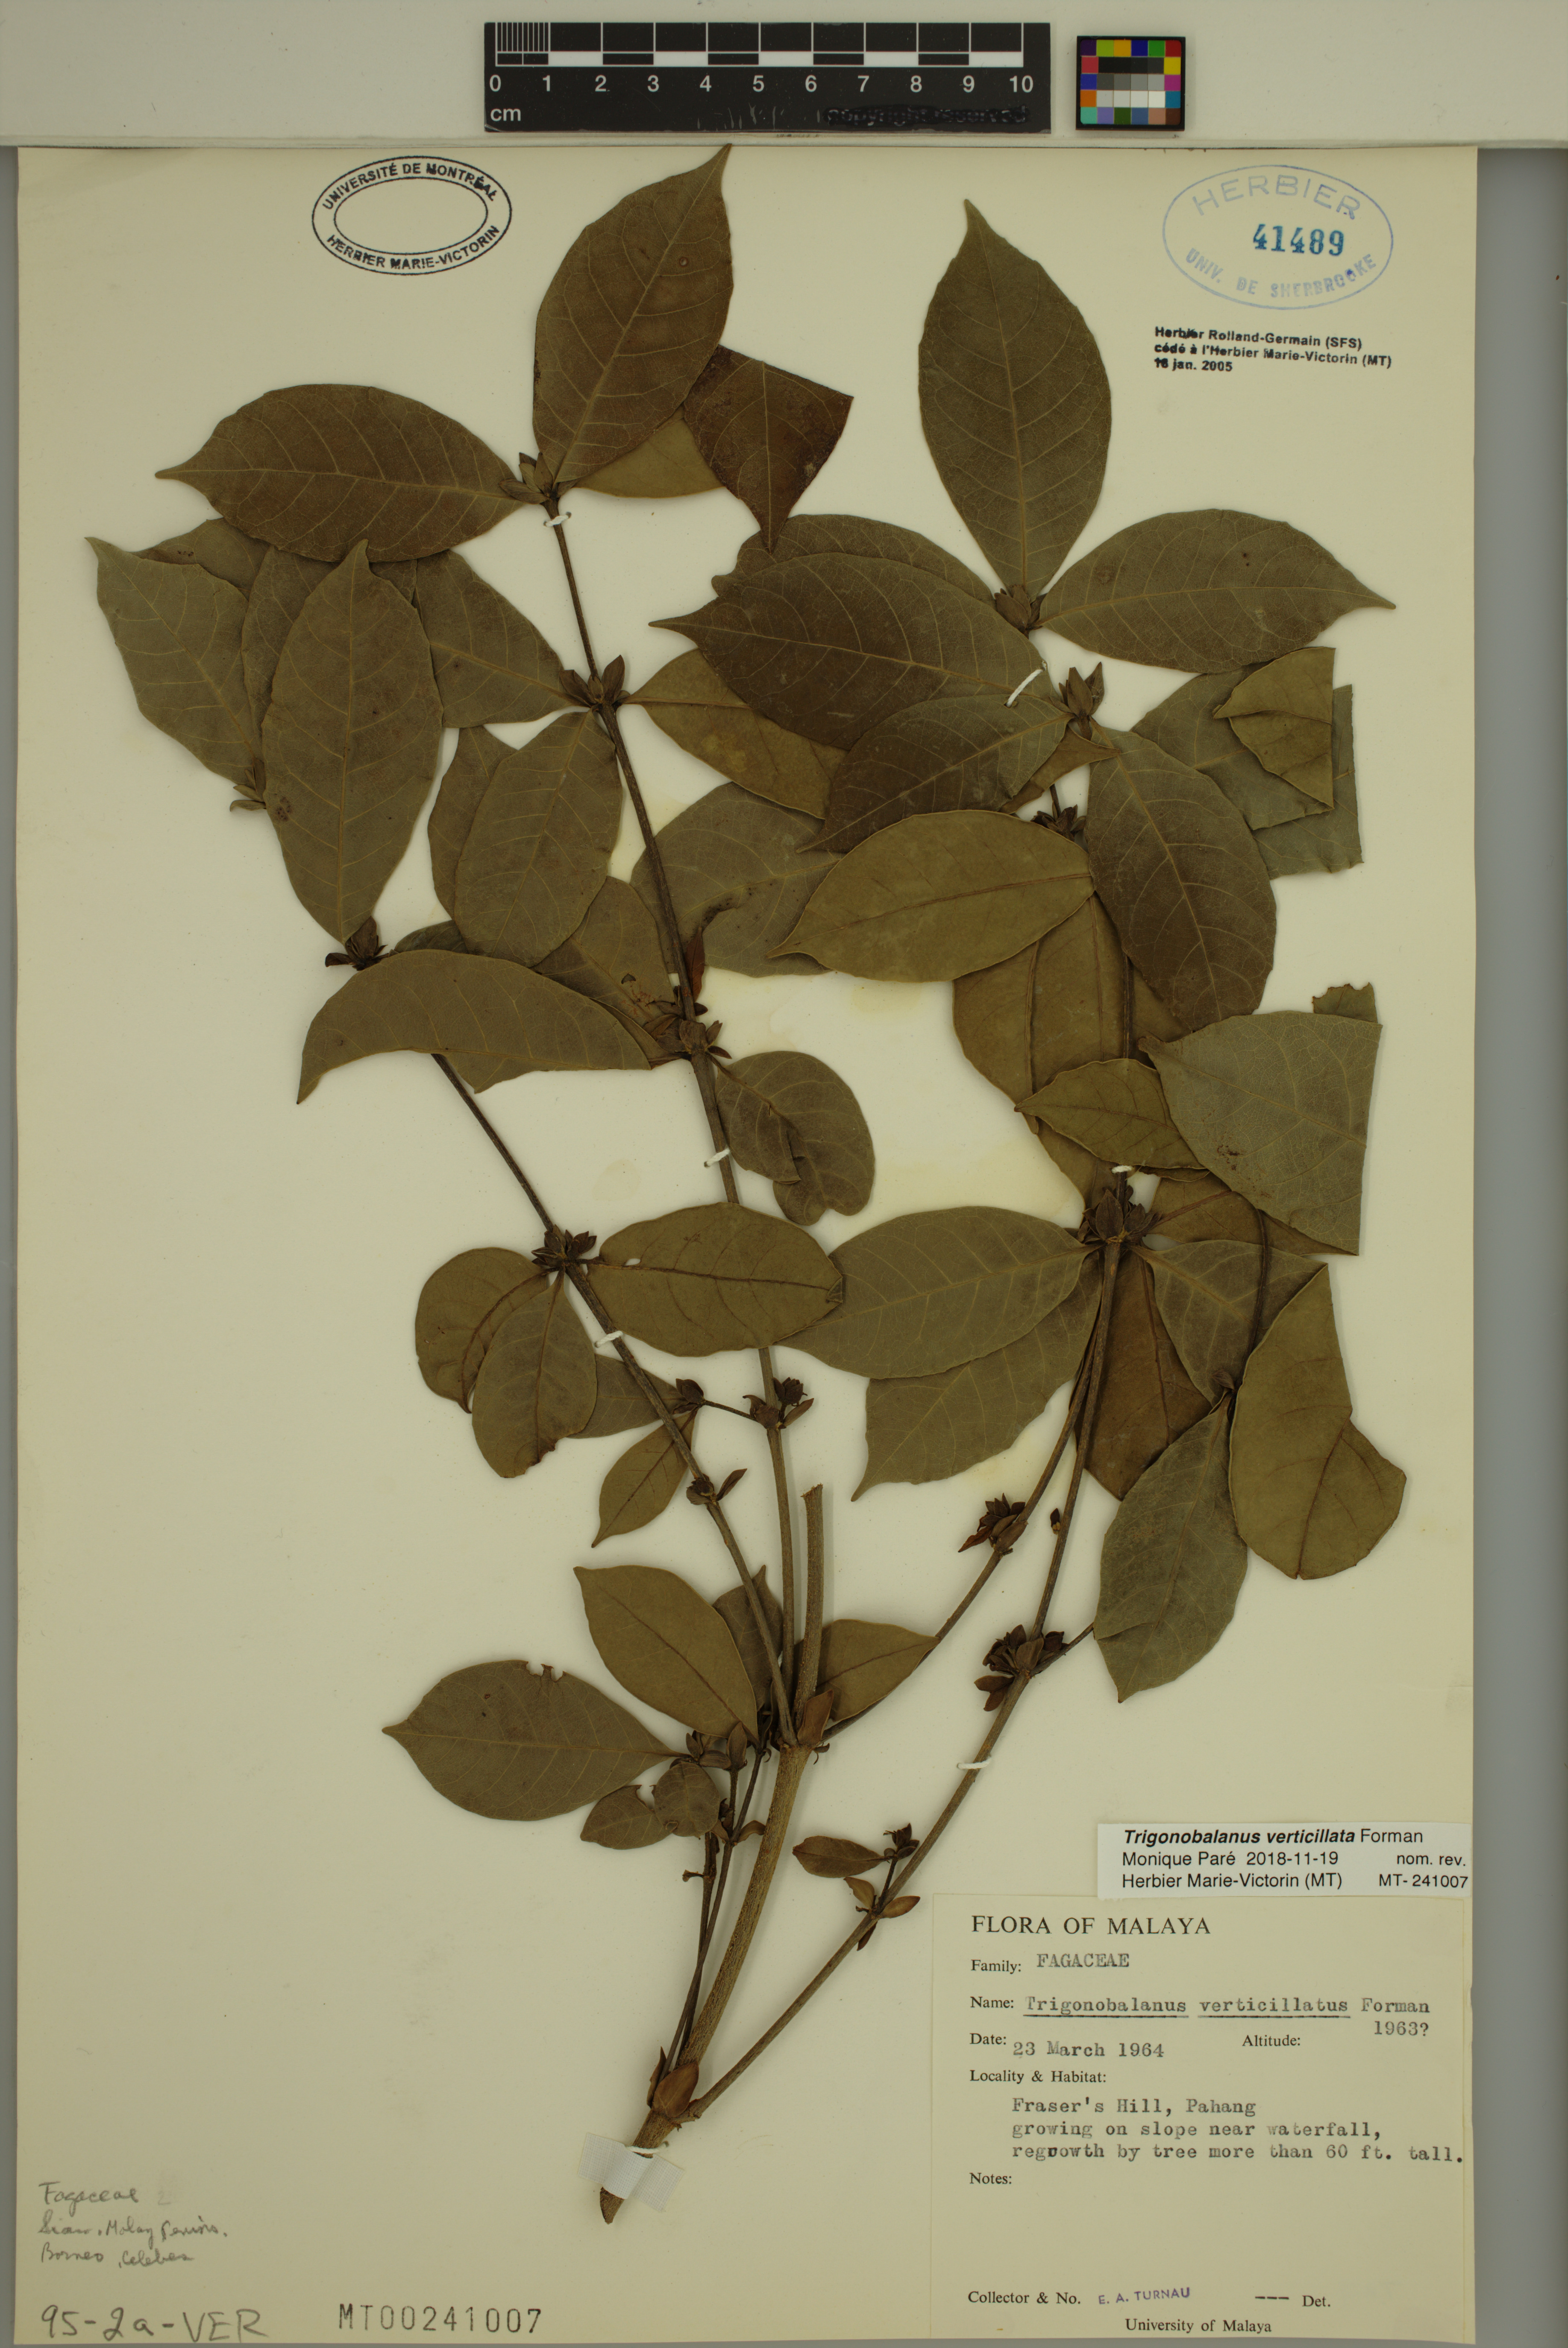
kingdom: Plantae
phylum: Tracheophyta
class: Magnoliopsida
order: Fagales
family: Fagaceae
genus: Trigonobalanus
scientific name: Trigonobalanus verticillata
